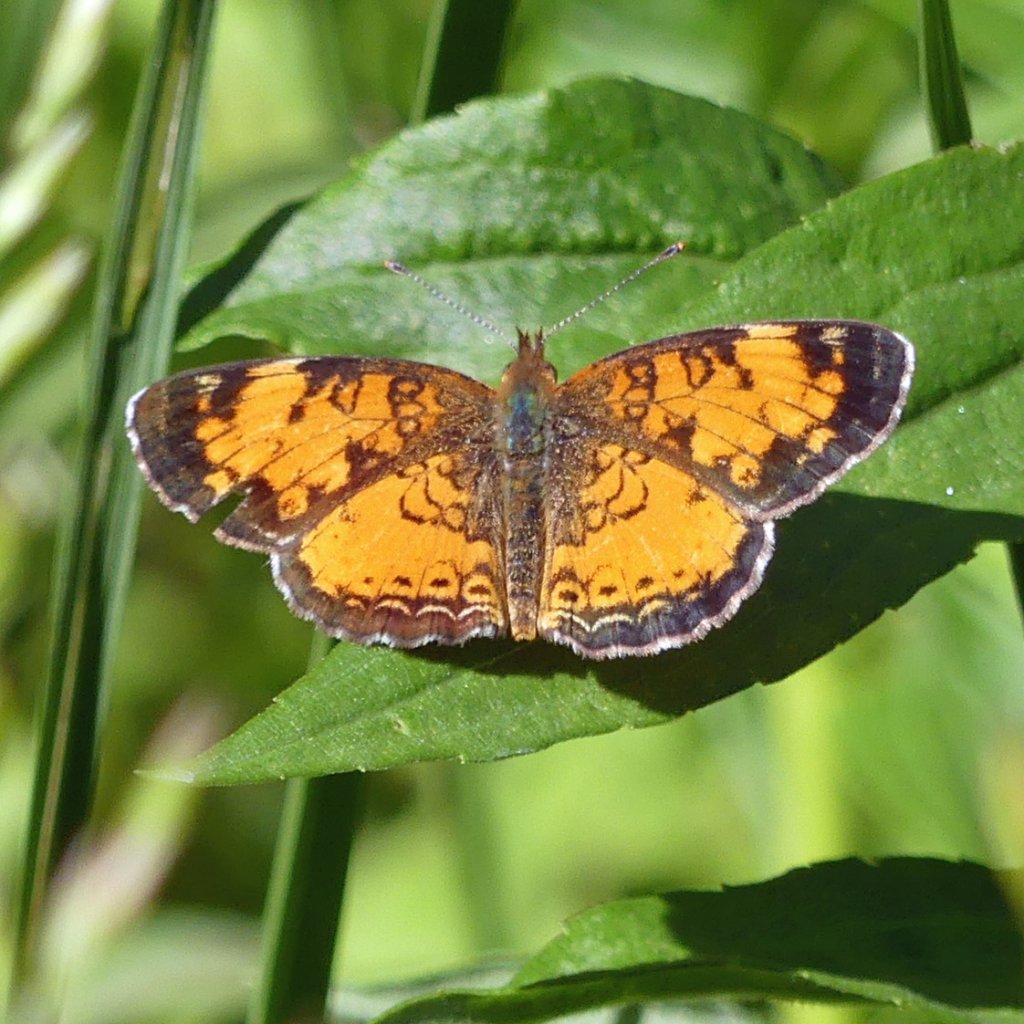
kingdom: Animalia
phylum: Arthropoda
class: Insecta
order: Lepidoptera
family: Nymphalidae
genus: Phyciodes
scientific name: Phyciodes tharos
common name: Northern Crescent
